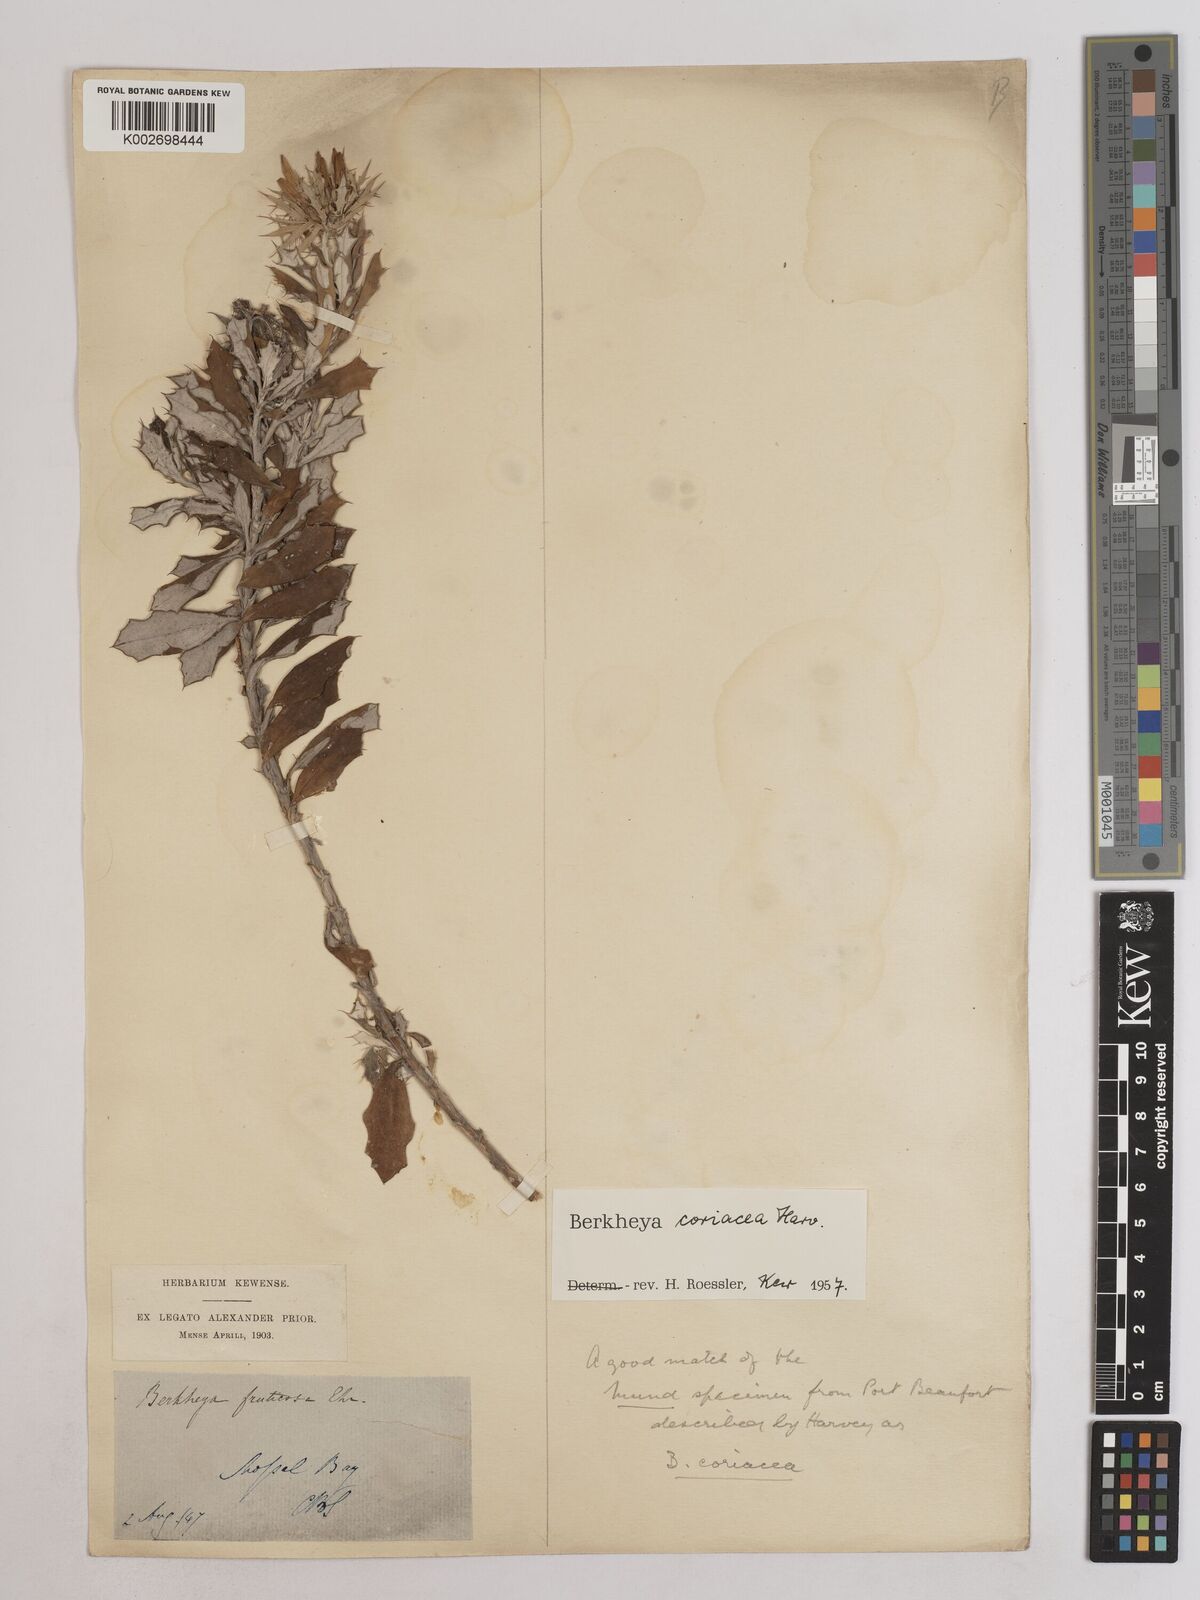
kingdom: Plantae
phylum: Tracheophyta
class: Magnoliopsida
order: Asterales
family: Asteraceae
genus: Berkheya
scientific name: Berkheya coriacea
